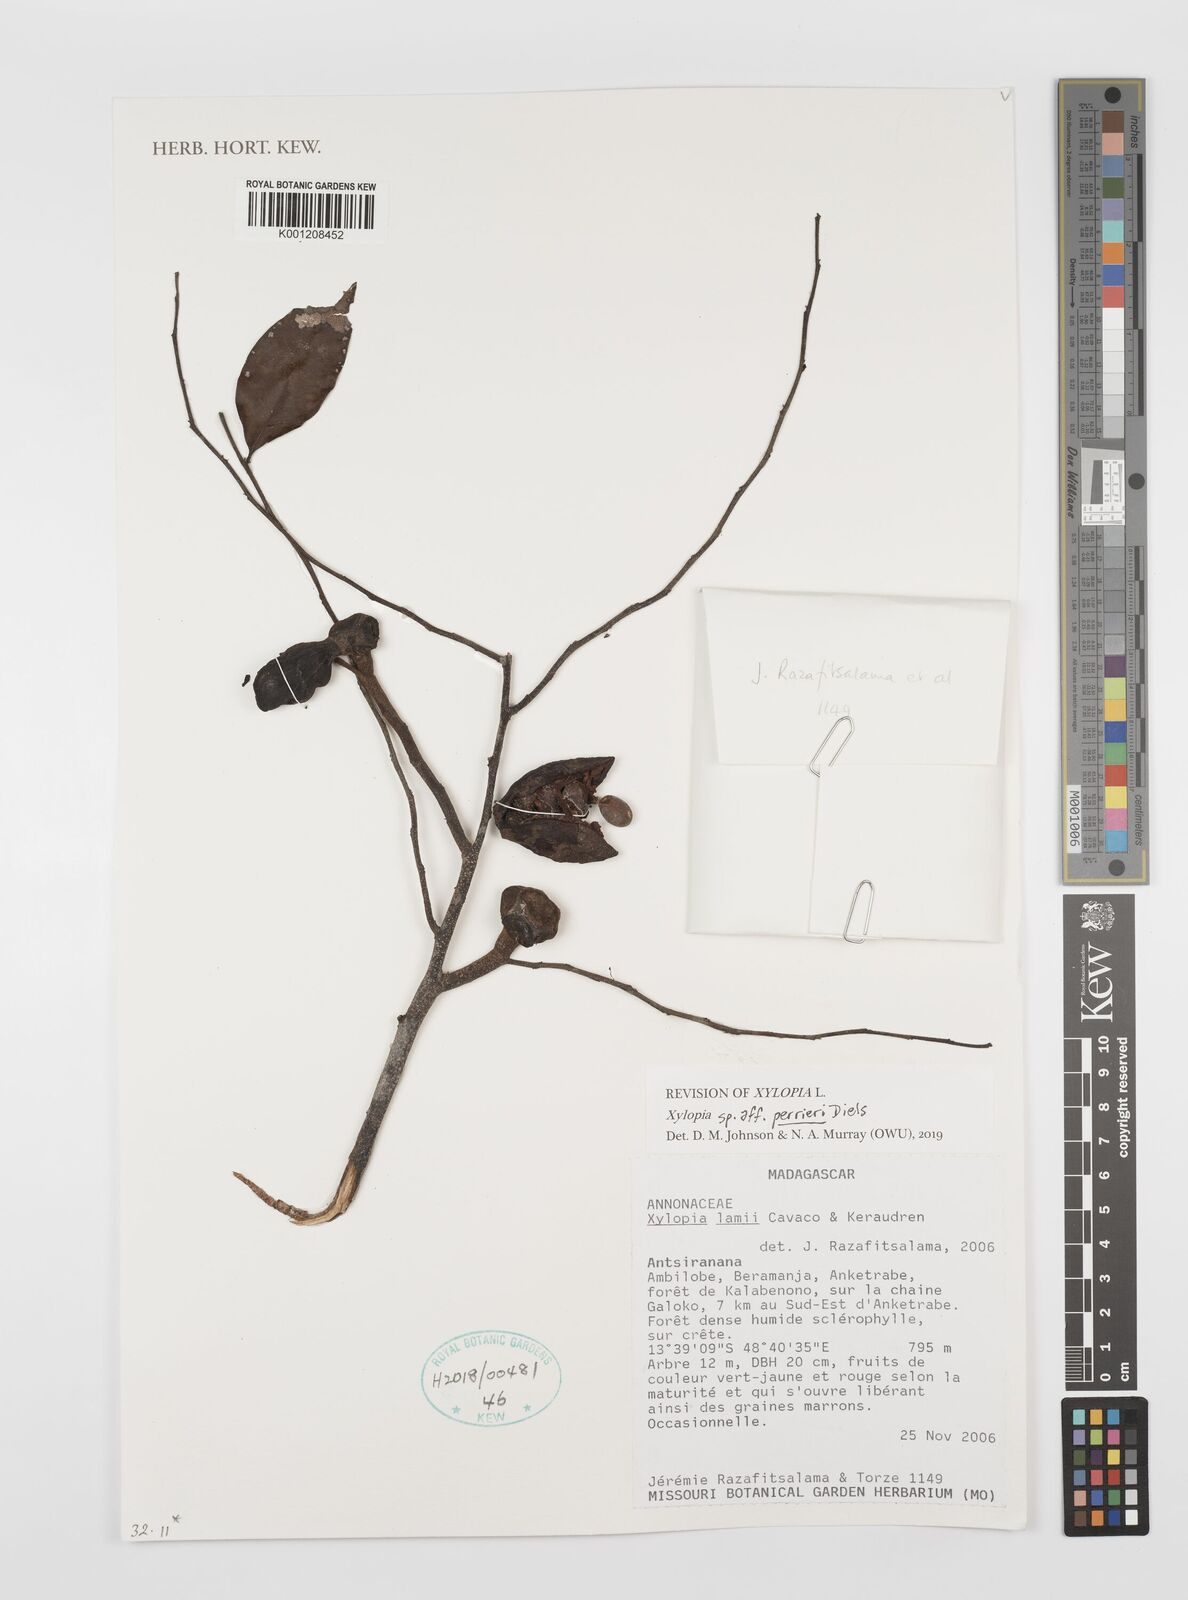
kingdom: Plantae
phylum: Tracheophyta
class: Magnoliopsida
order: Magnoliales
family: Annonaceae
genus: Xylopia
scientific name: Xylopia lamarckii
